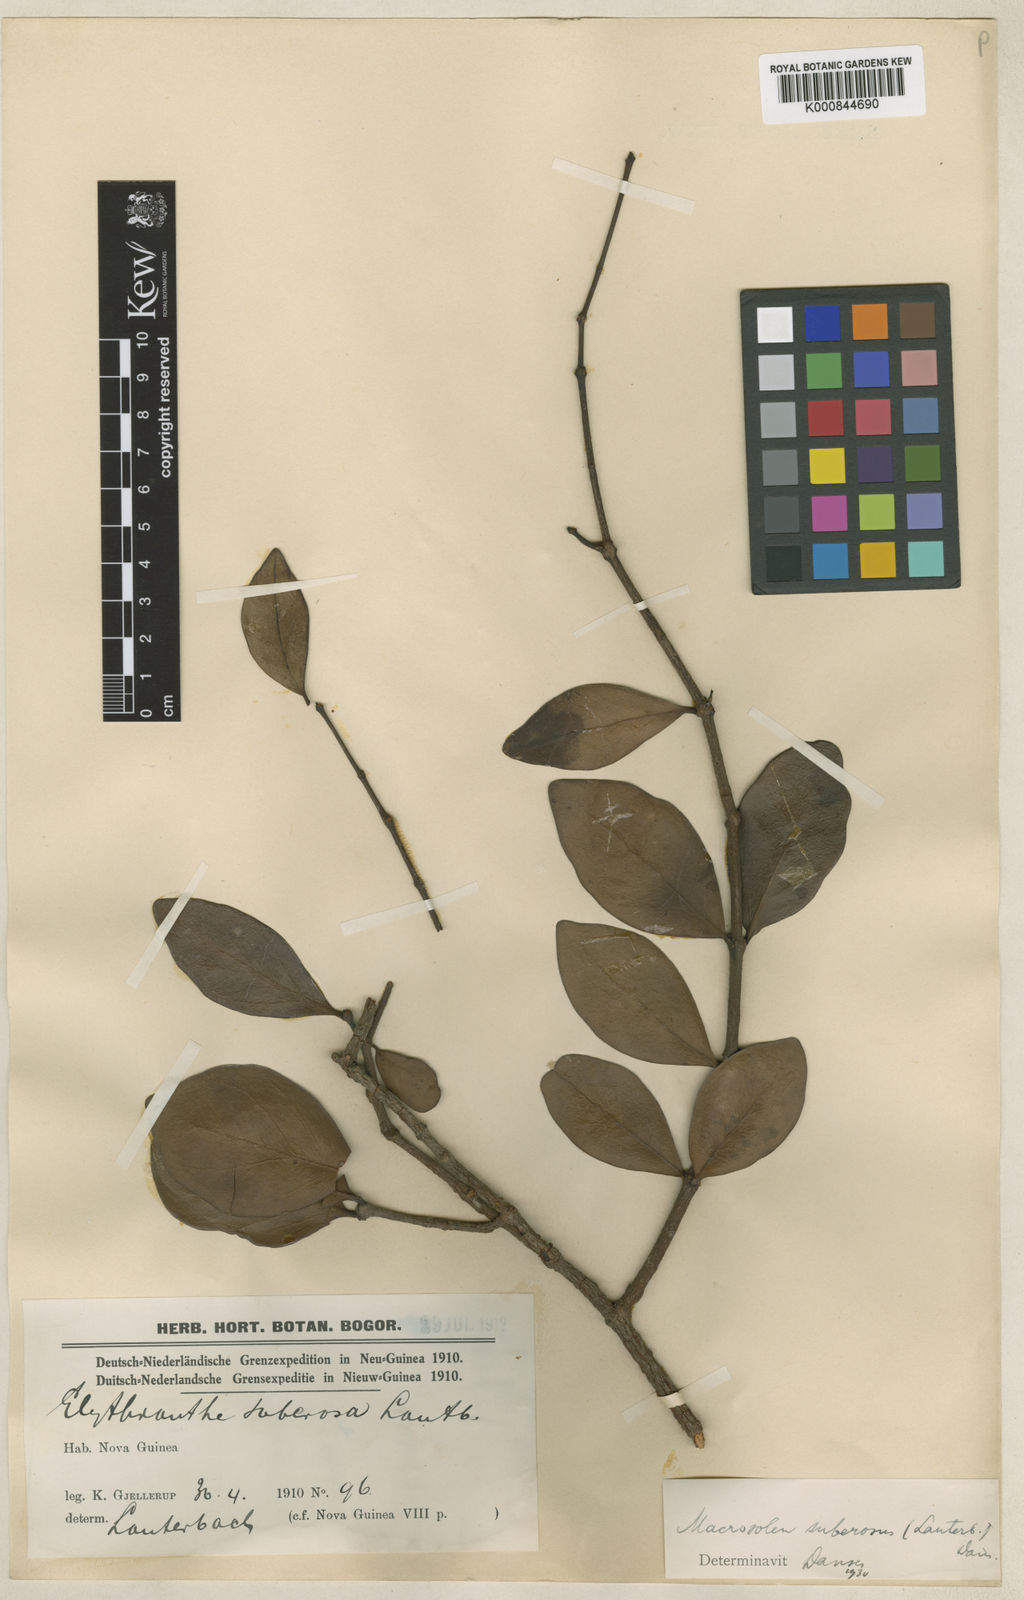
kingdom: Plantae
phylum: Tracheophyta
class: Magnoliopsida
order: Santalales
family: Loranthaceae
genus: Macrosolen
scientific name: Macrosolen cochinchinensis
